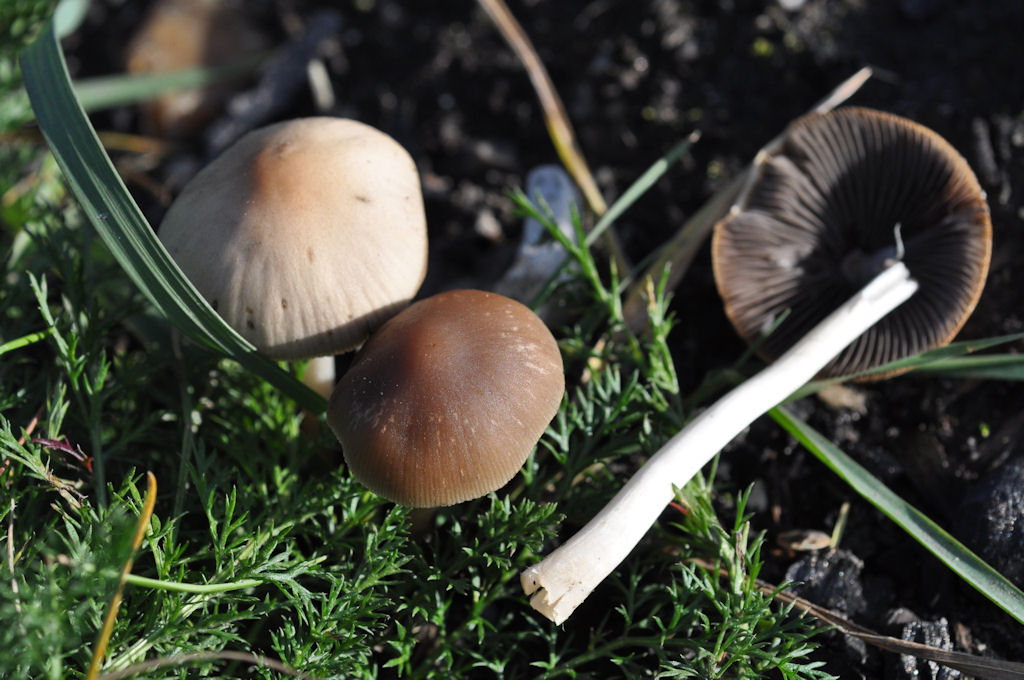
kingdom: Fungi
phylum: Basidiomycota
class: Agaricomycetes
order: Agaricales
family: Psathyrellaceae
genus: Psathyrella
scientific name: Psathyrella panaeoloides
